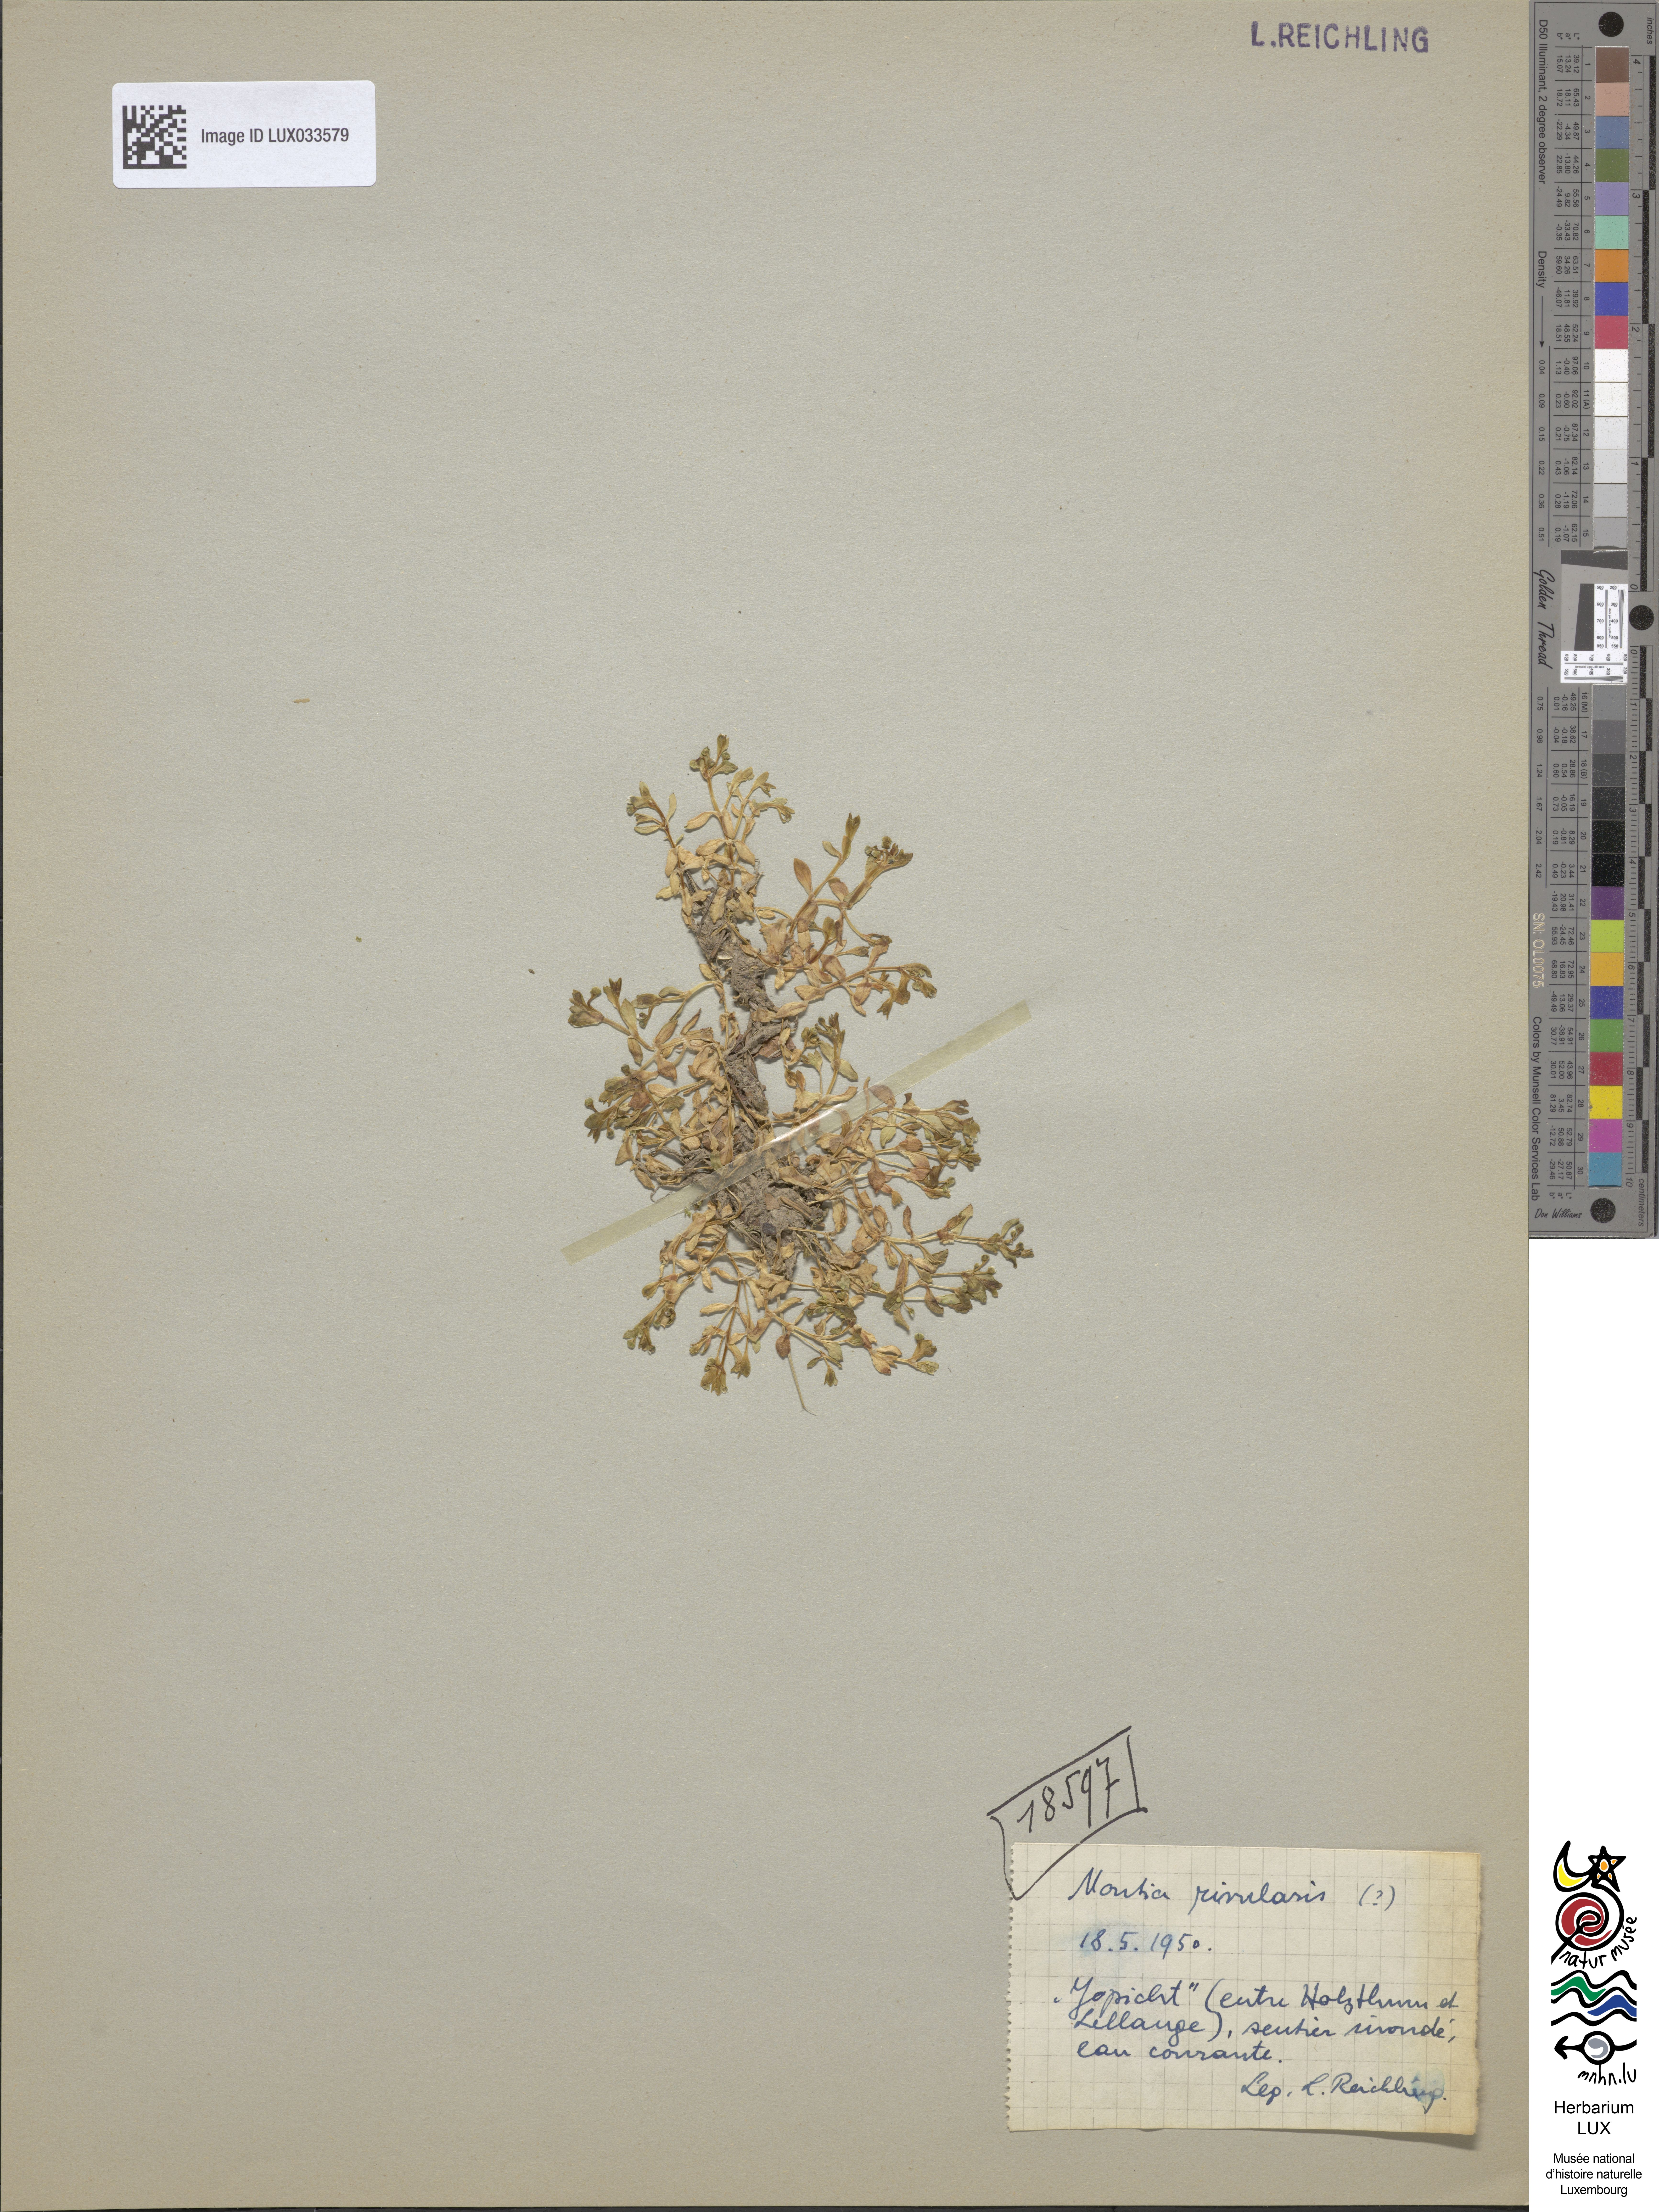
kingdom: Plantae
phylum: Tracheophyta
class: Magnoliopsida
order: Caryophyllales
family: Montiaceae
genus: Montia
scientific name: Montia fontana
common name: Blinks
